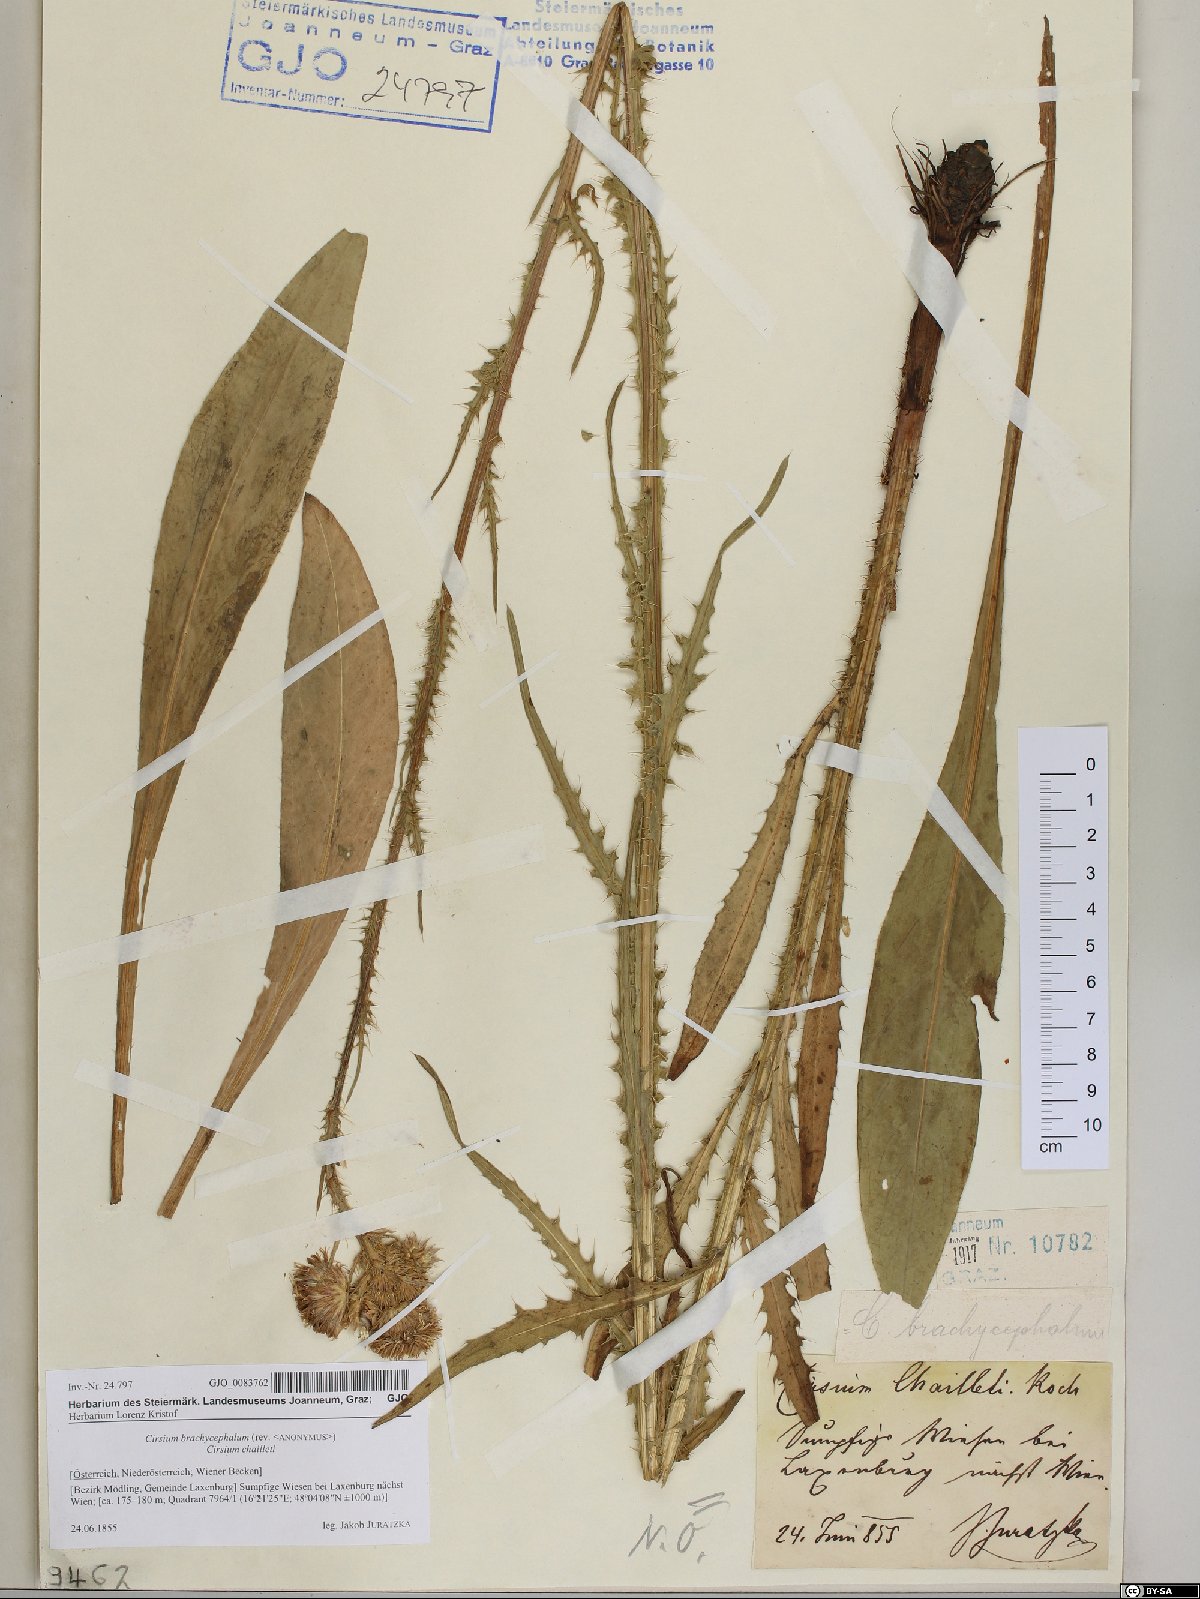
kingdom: Plantae
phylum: Tracheophyta
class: Magnoliopsida
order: Asterales
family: Asteraceae
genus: Cirsium
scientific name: Cirsium brachycephalum
